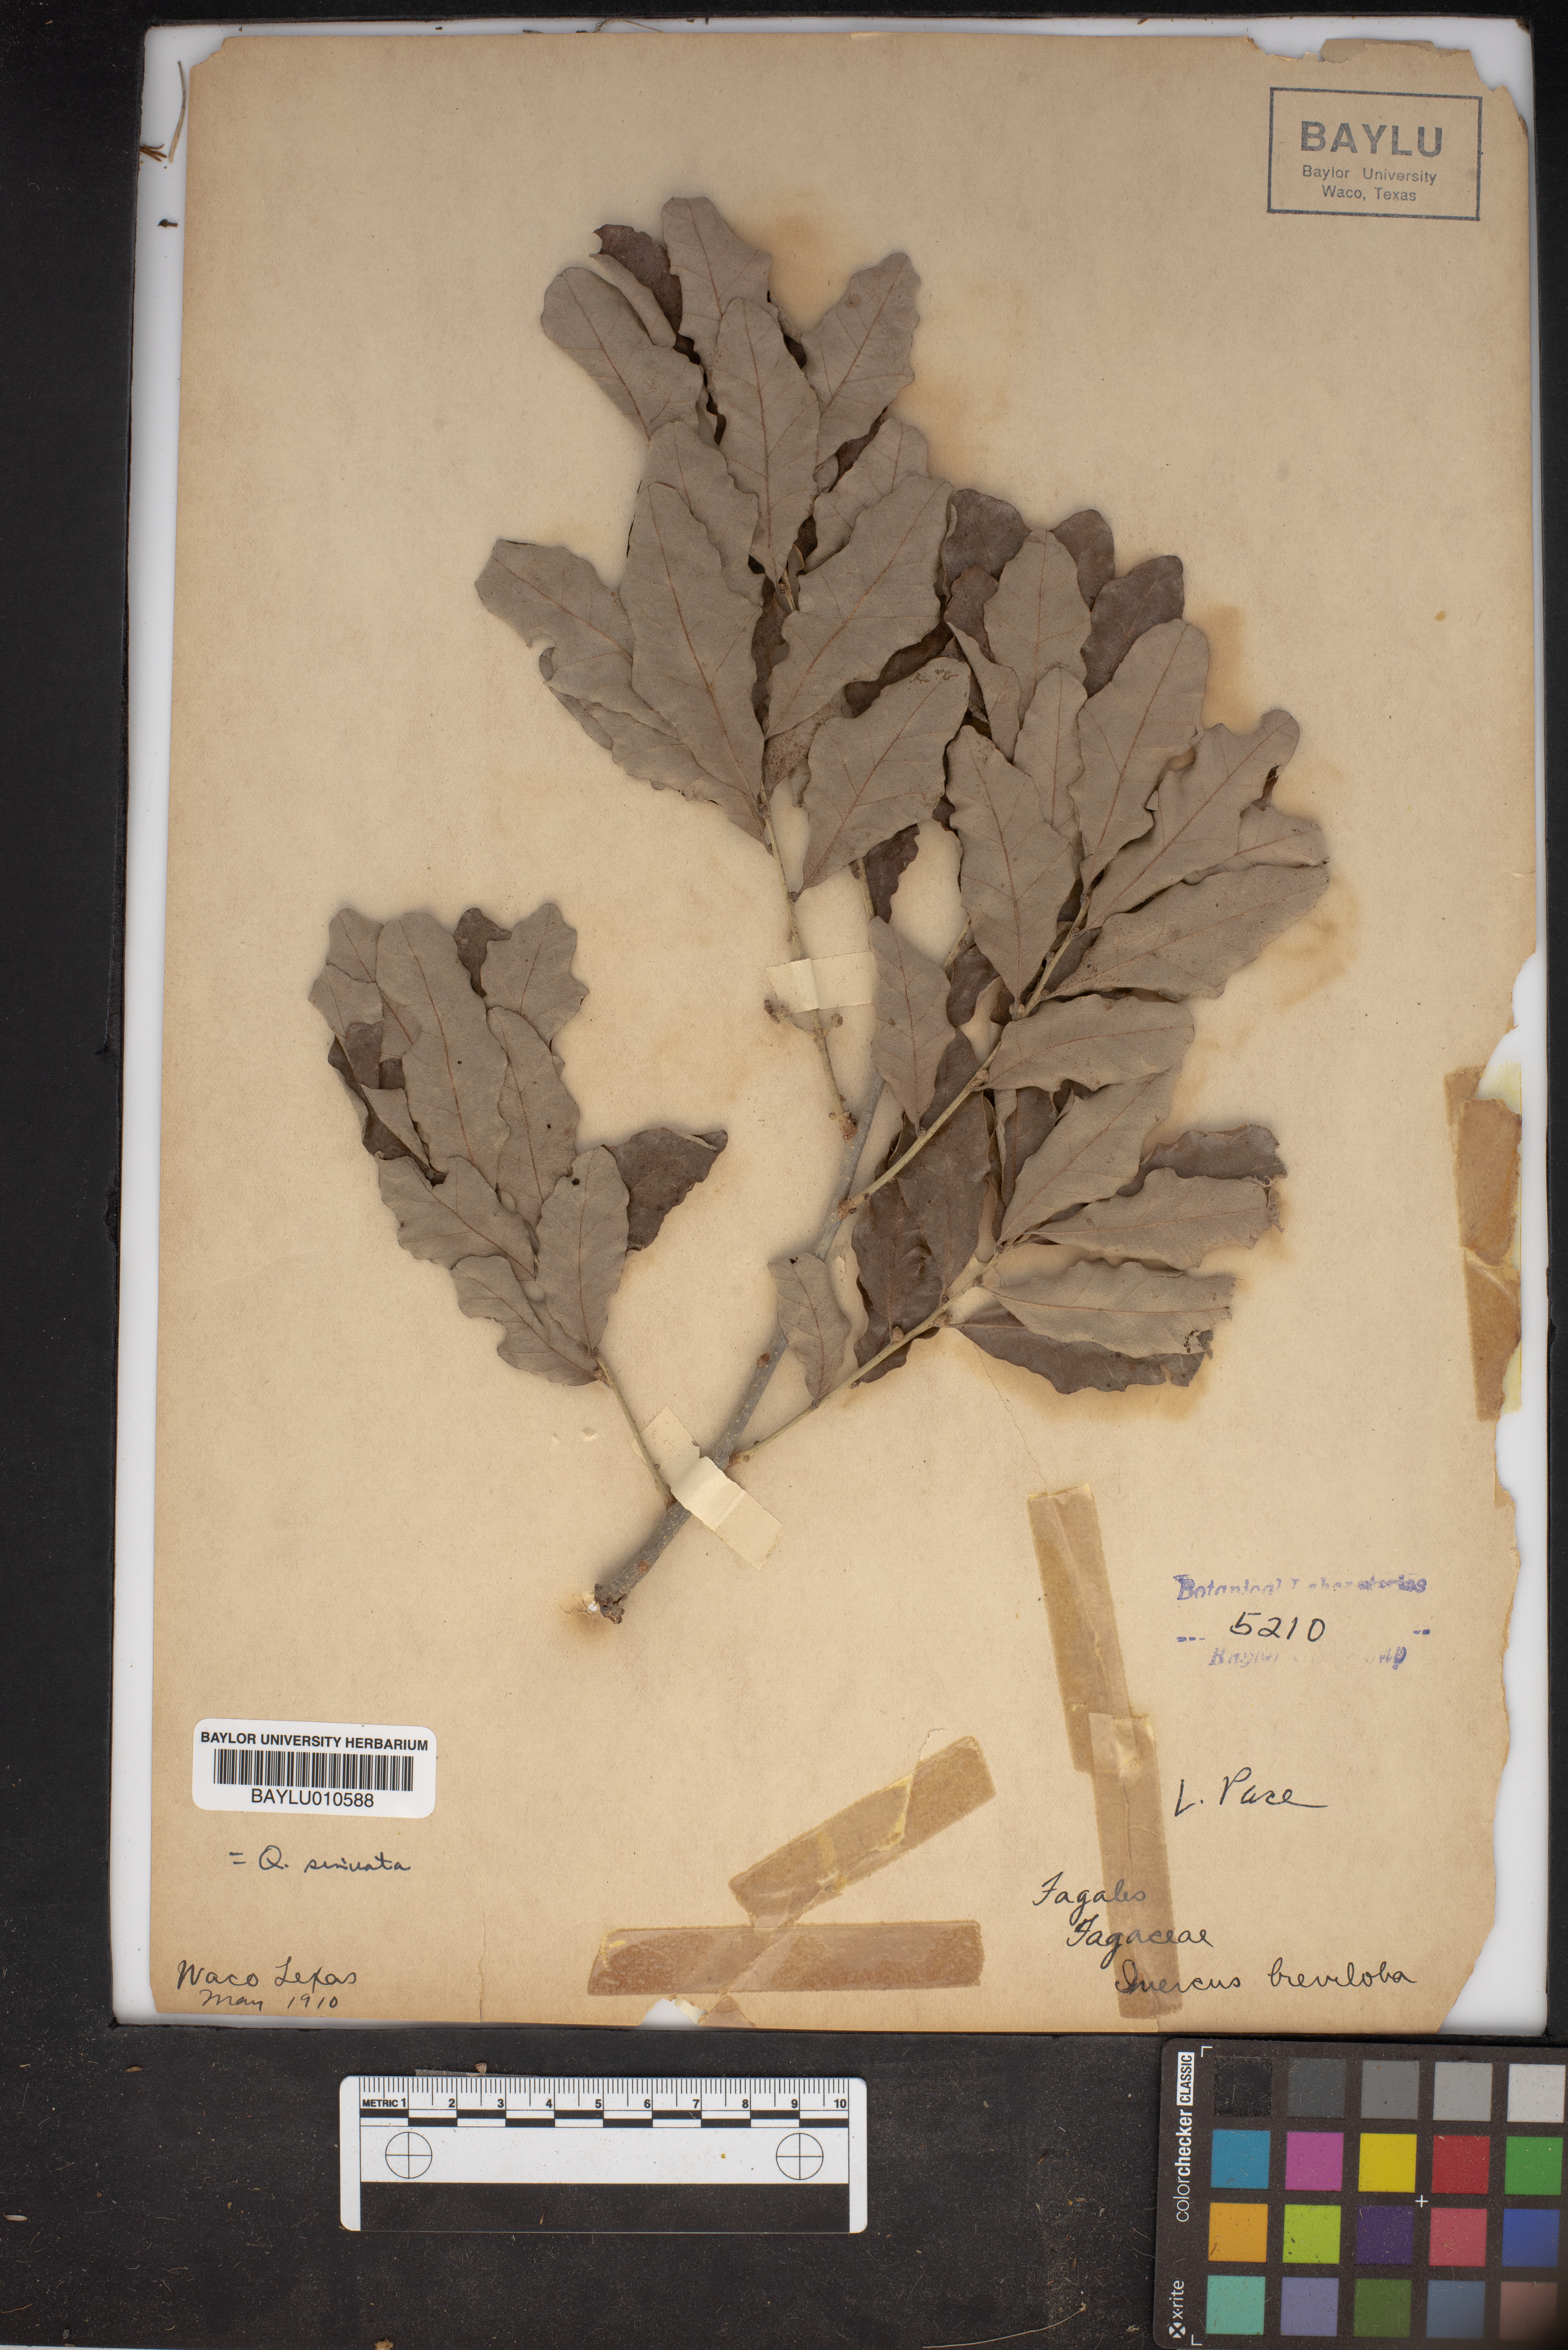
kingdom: Plantae
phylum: Tracheophyta
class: Magnoliopsida
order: Fagales
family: Fagaceae
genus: Quercus
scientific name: Quercus sinuata
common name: Durand oak
